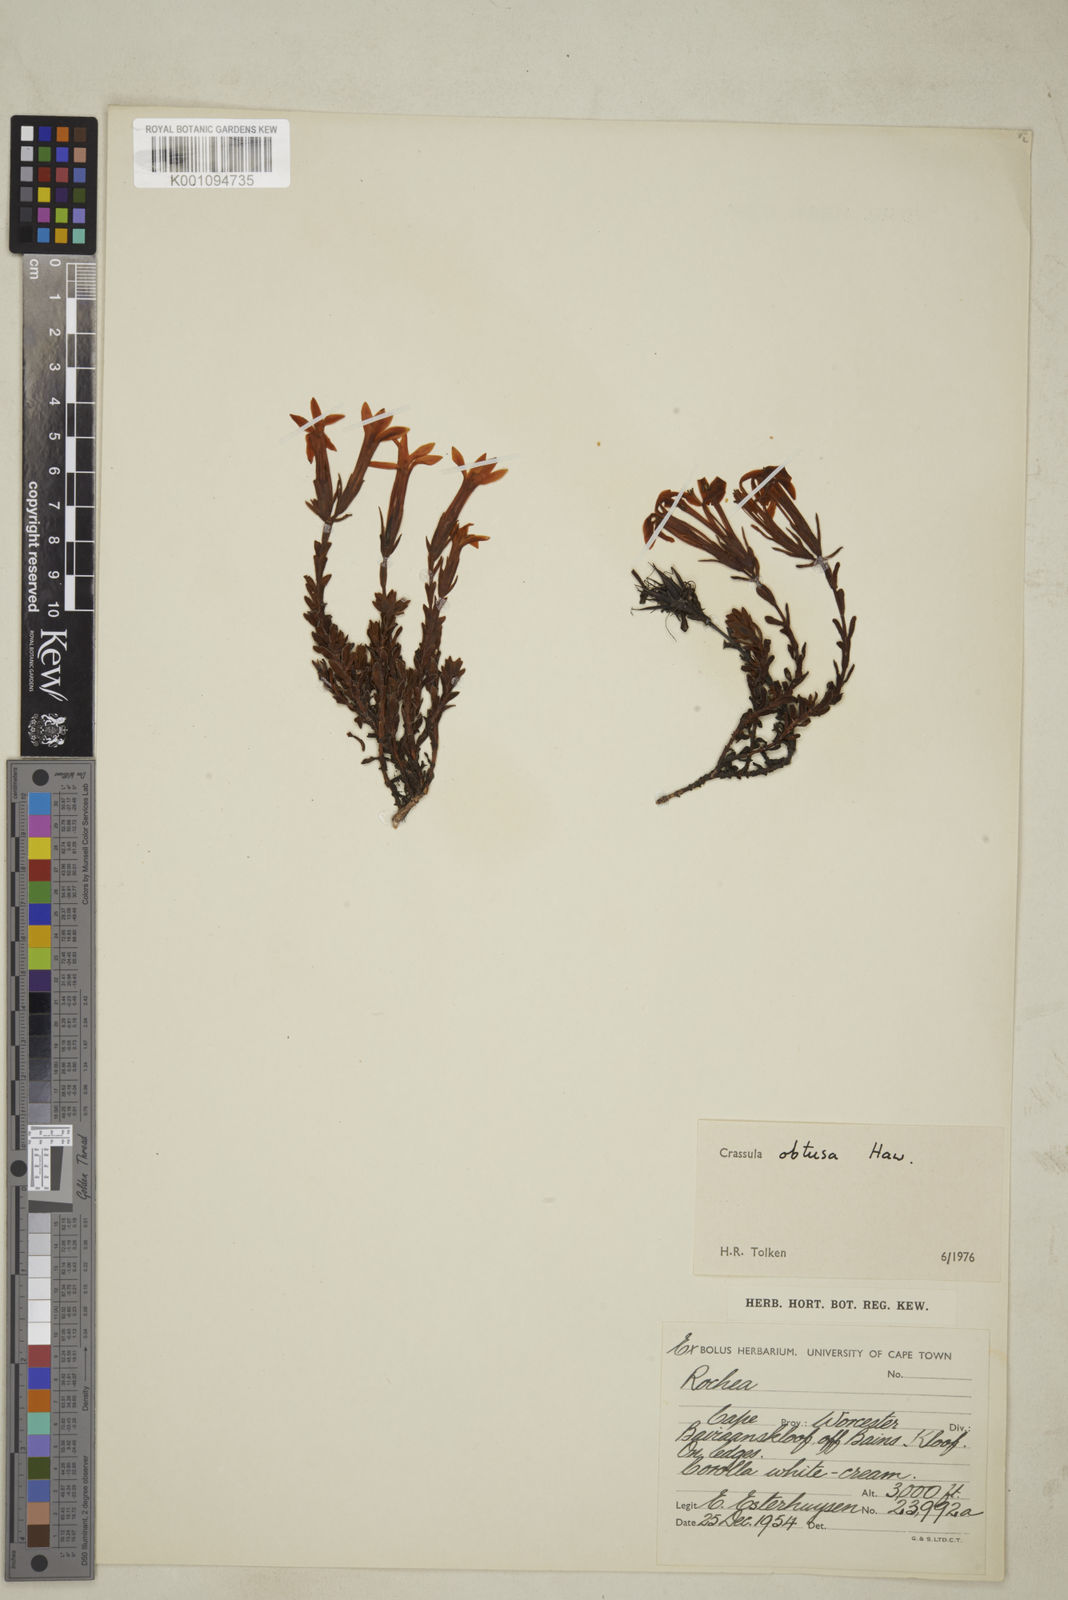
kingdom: Plantae
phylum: Tracheophyta
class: Magnoliopsida
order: Saxifragales
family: Crassulaceae
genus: Crassula
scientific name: Crassula obtusa
